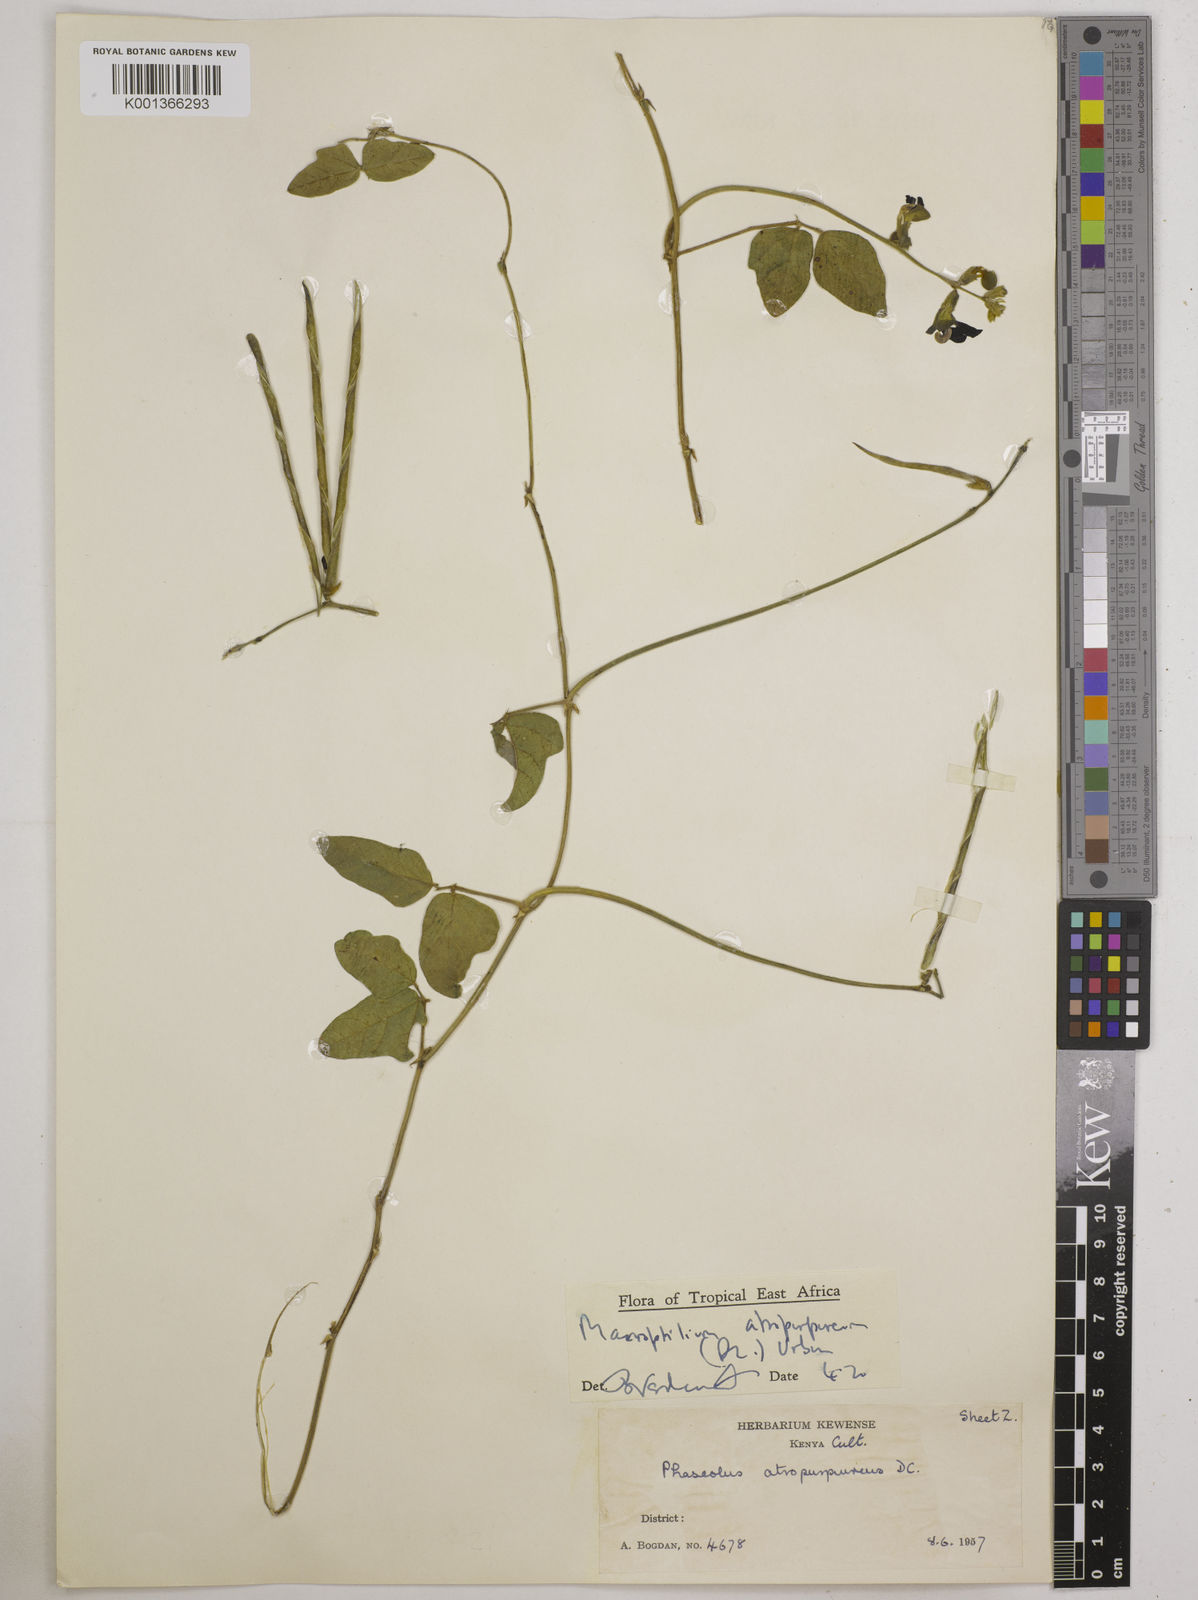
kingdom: Plantae
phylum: Tracheophyta
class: Magnoliopsida
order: Fabales
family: Fabaceae
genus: Macroptilium
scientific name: Macroptilium atropurpureum
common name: Purple bushbean
